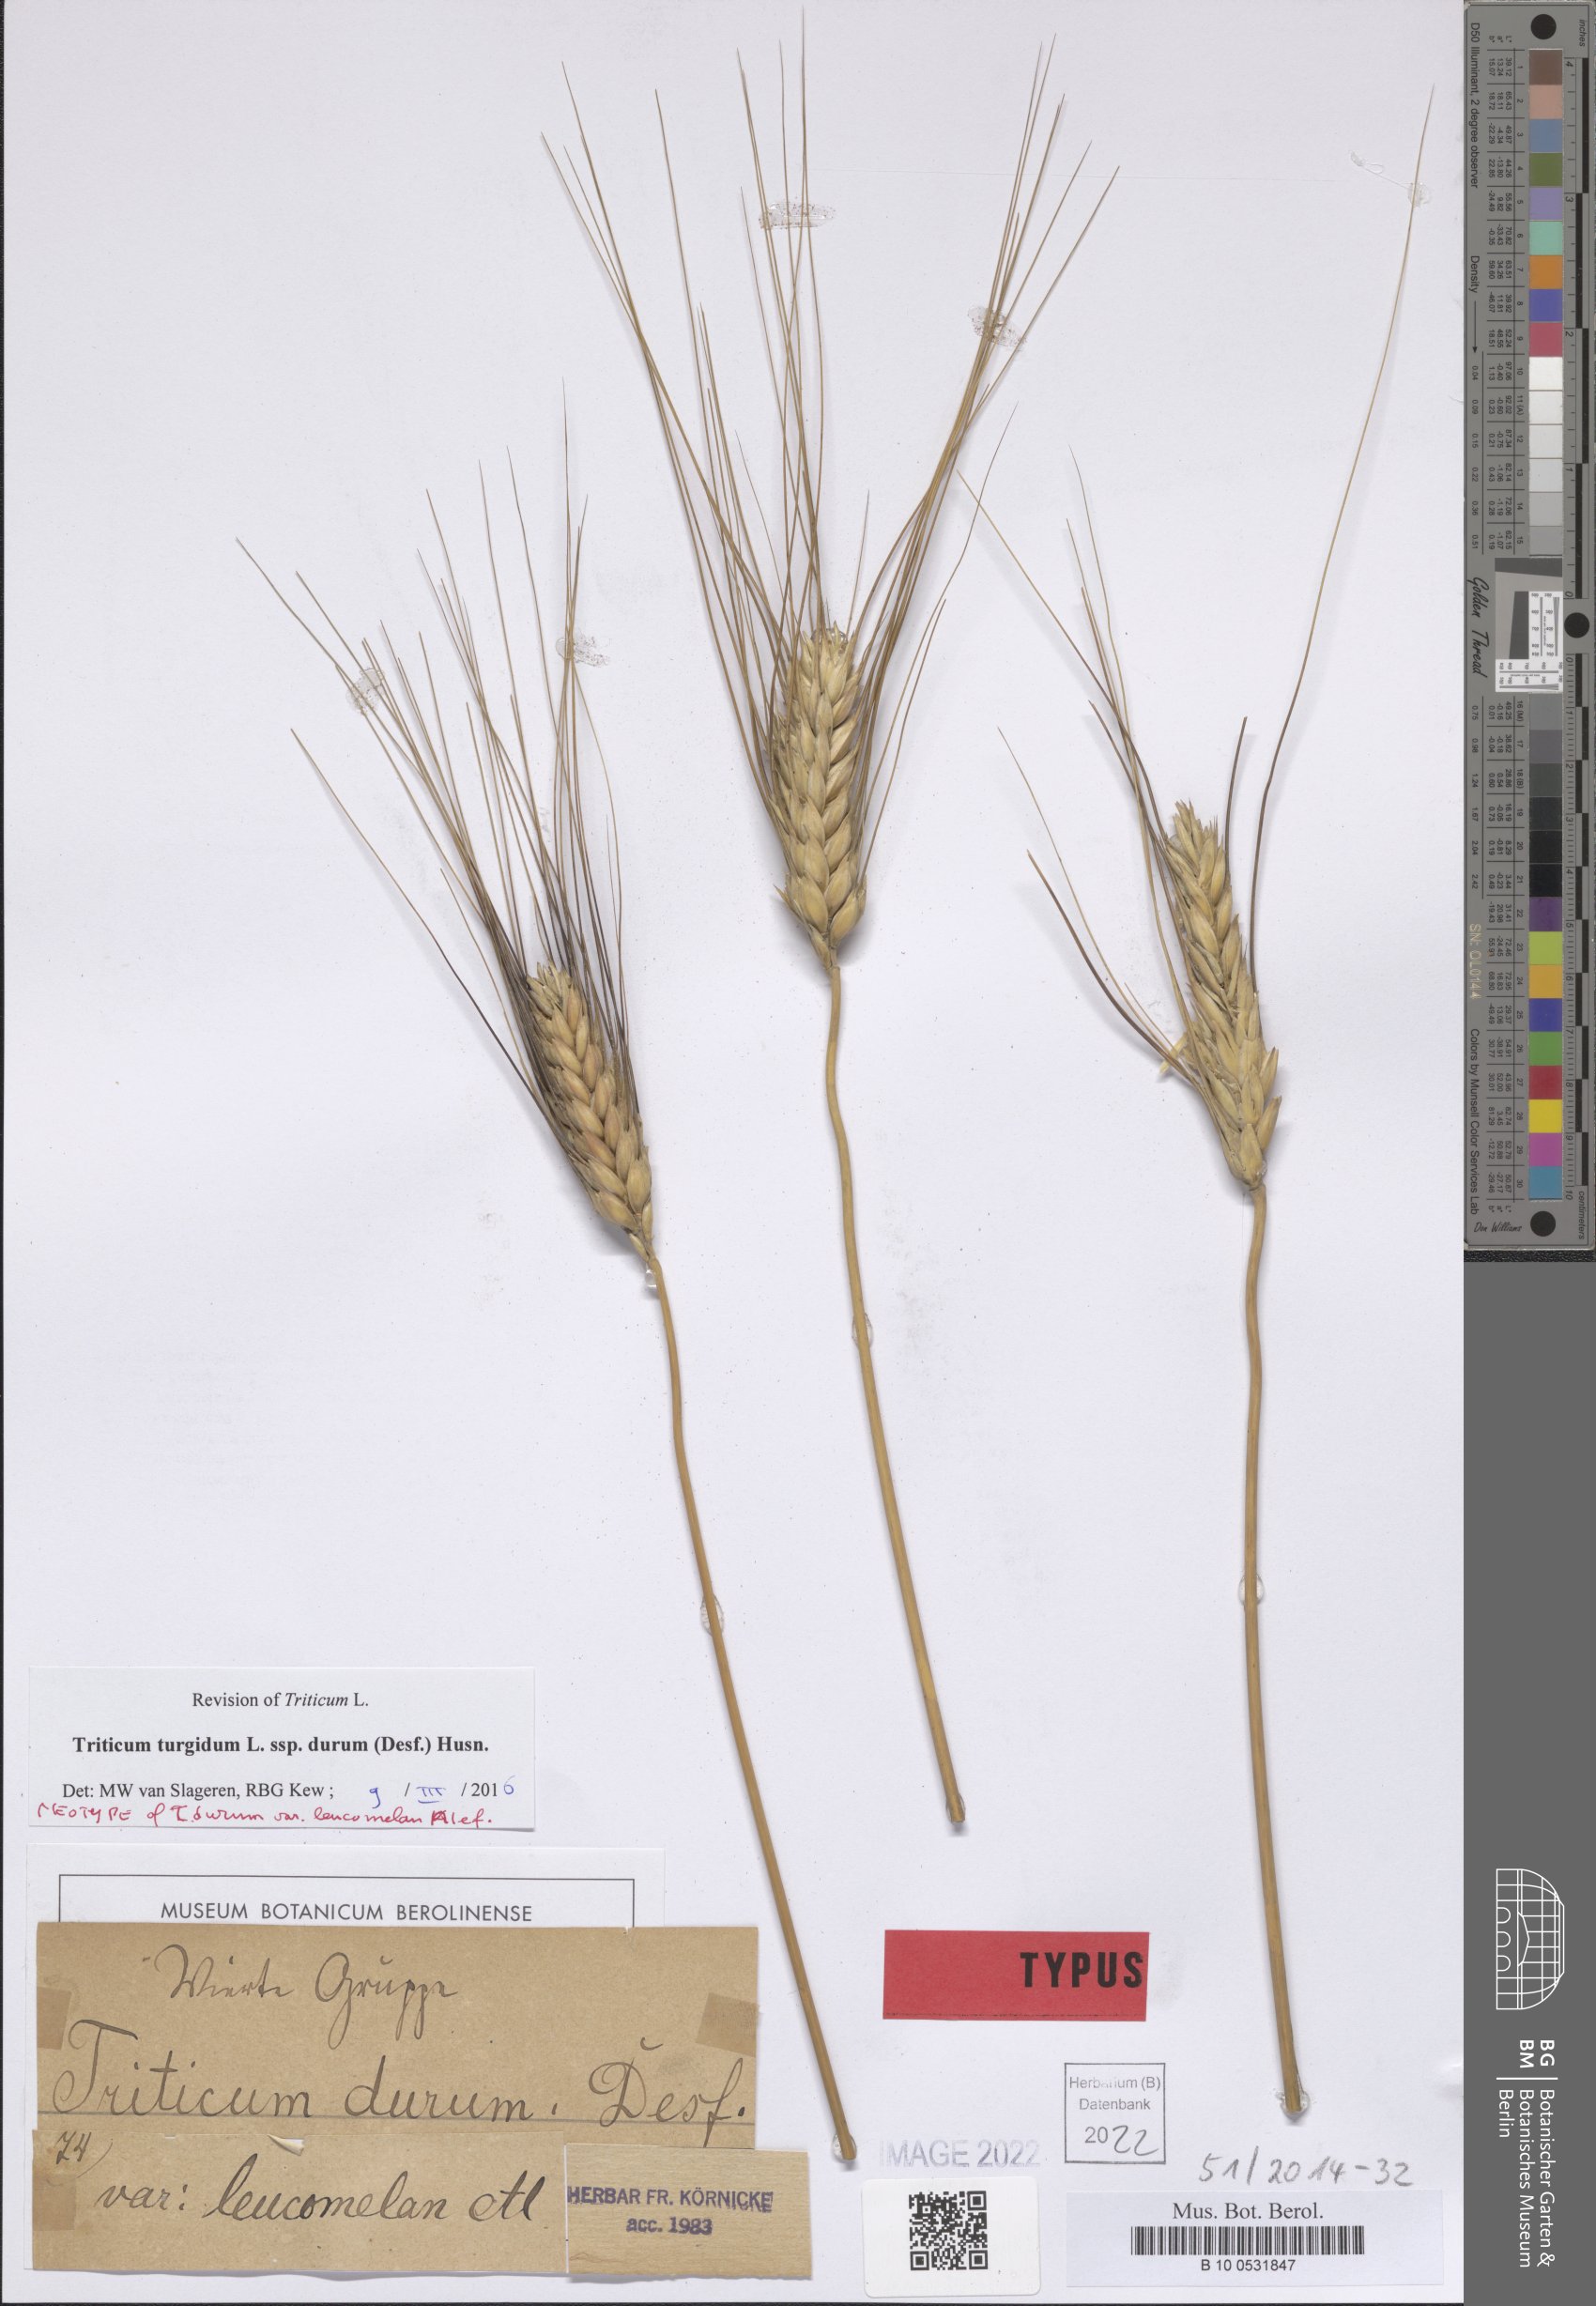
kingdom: Plantae
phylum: Tracheophyta
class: Liliopsida
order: Poales
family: Poaceae
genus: Triticum
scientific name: Triticum turgidum
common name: Rivet wheat
